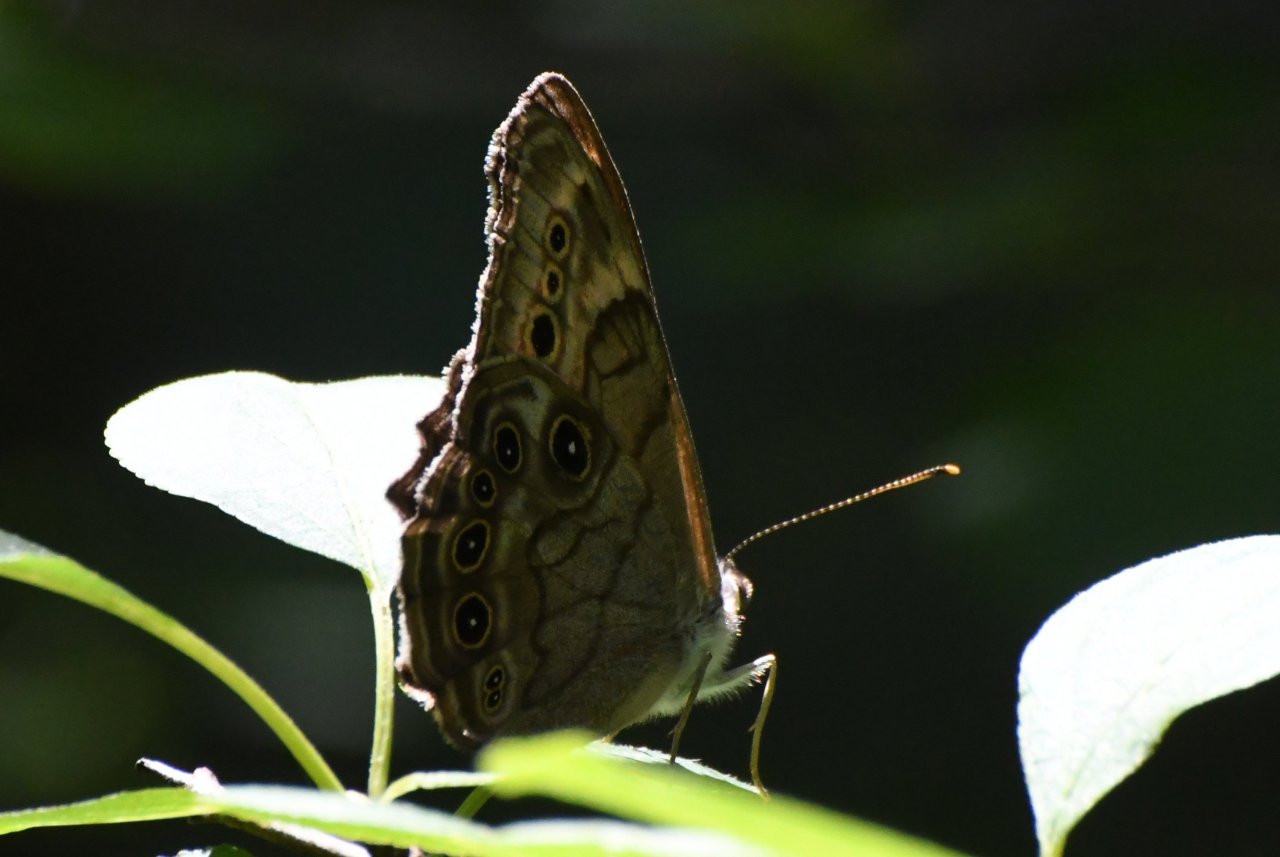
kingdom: Animalia
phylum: Arthropoda
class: Insecta
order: Lepidoptera
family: Nymphalidae
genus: Lethe
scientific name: Lethe anthedon
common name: Northern Pearly-Eye
